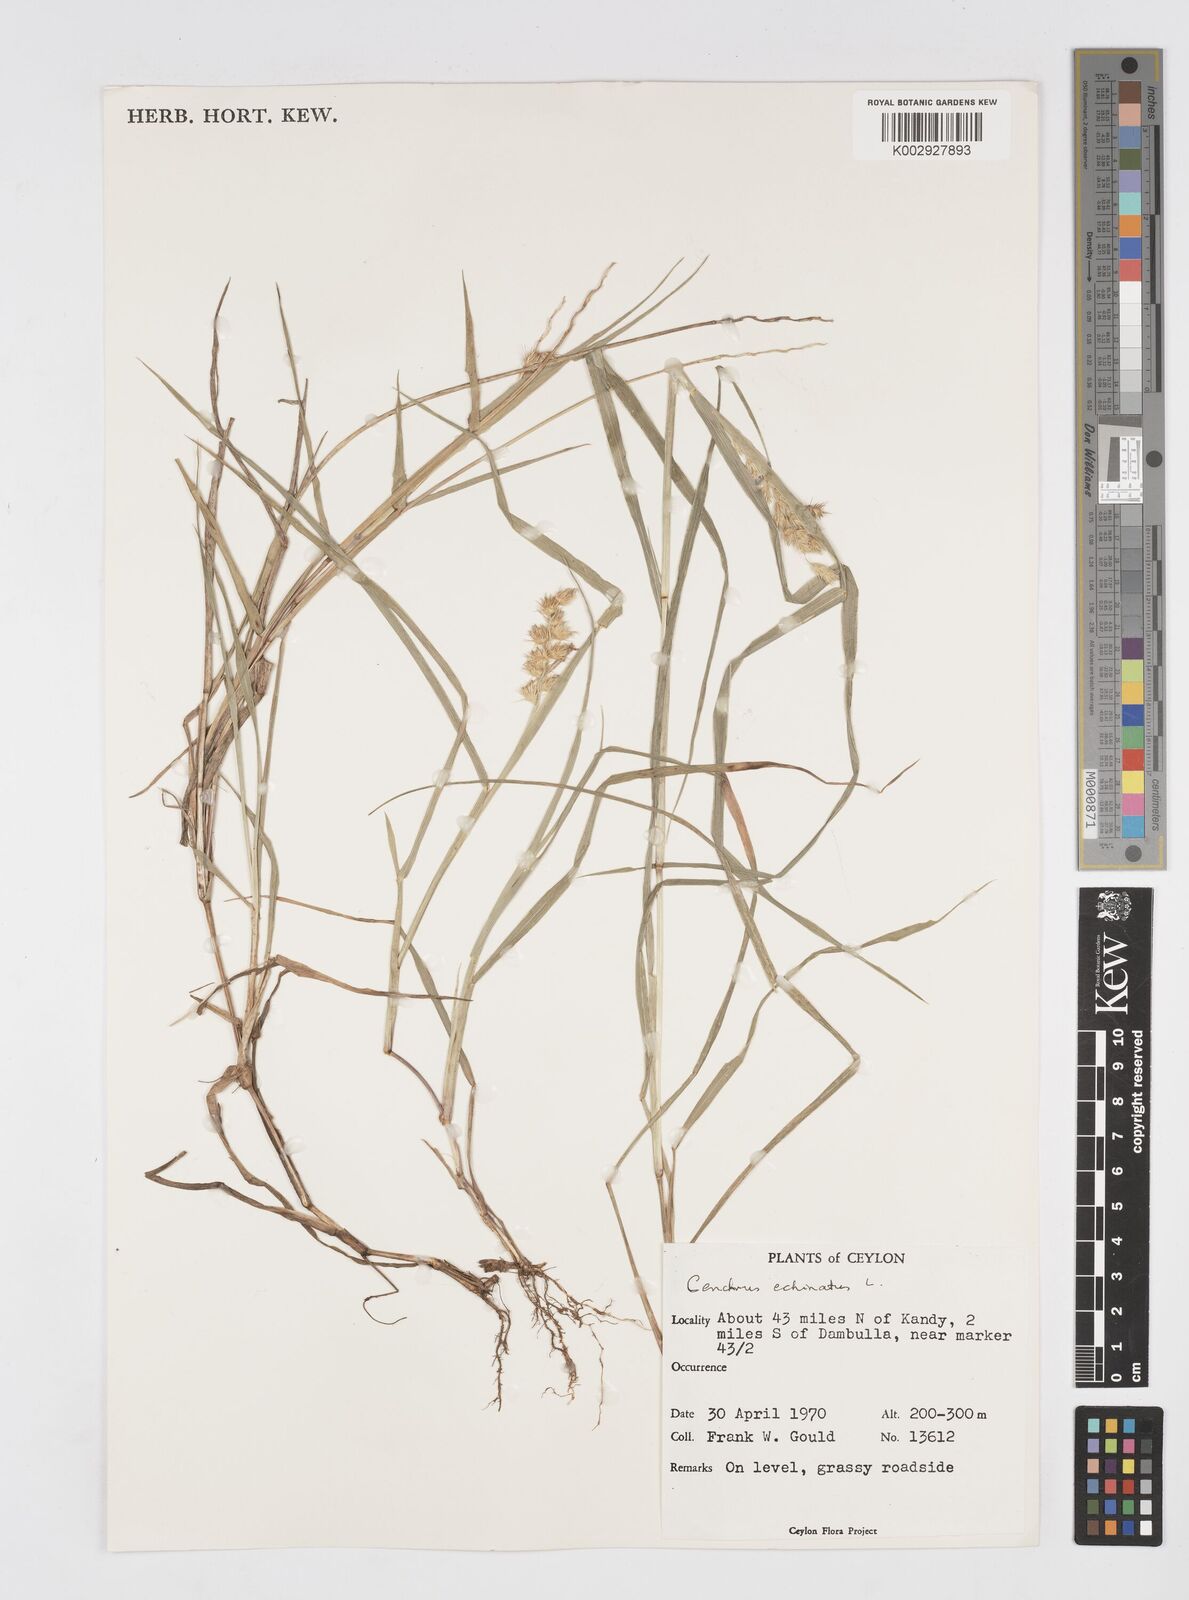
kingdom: Plantae
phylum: Tracheophyta
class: Liliopsida
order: Poales
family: Poaceae
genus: Cenchrus
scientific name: Cenchrus echinatus
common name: Southern sandbur
